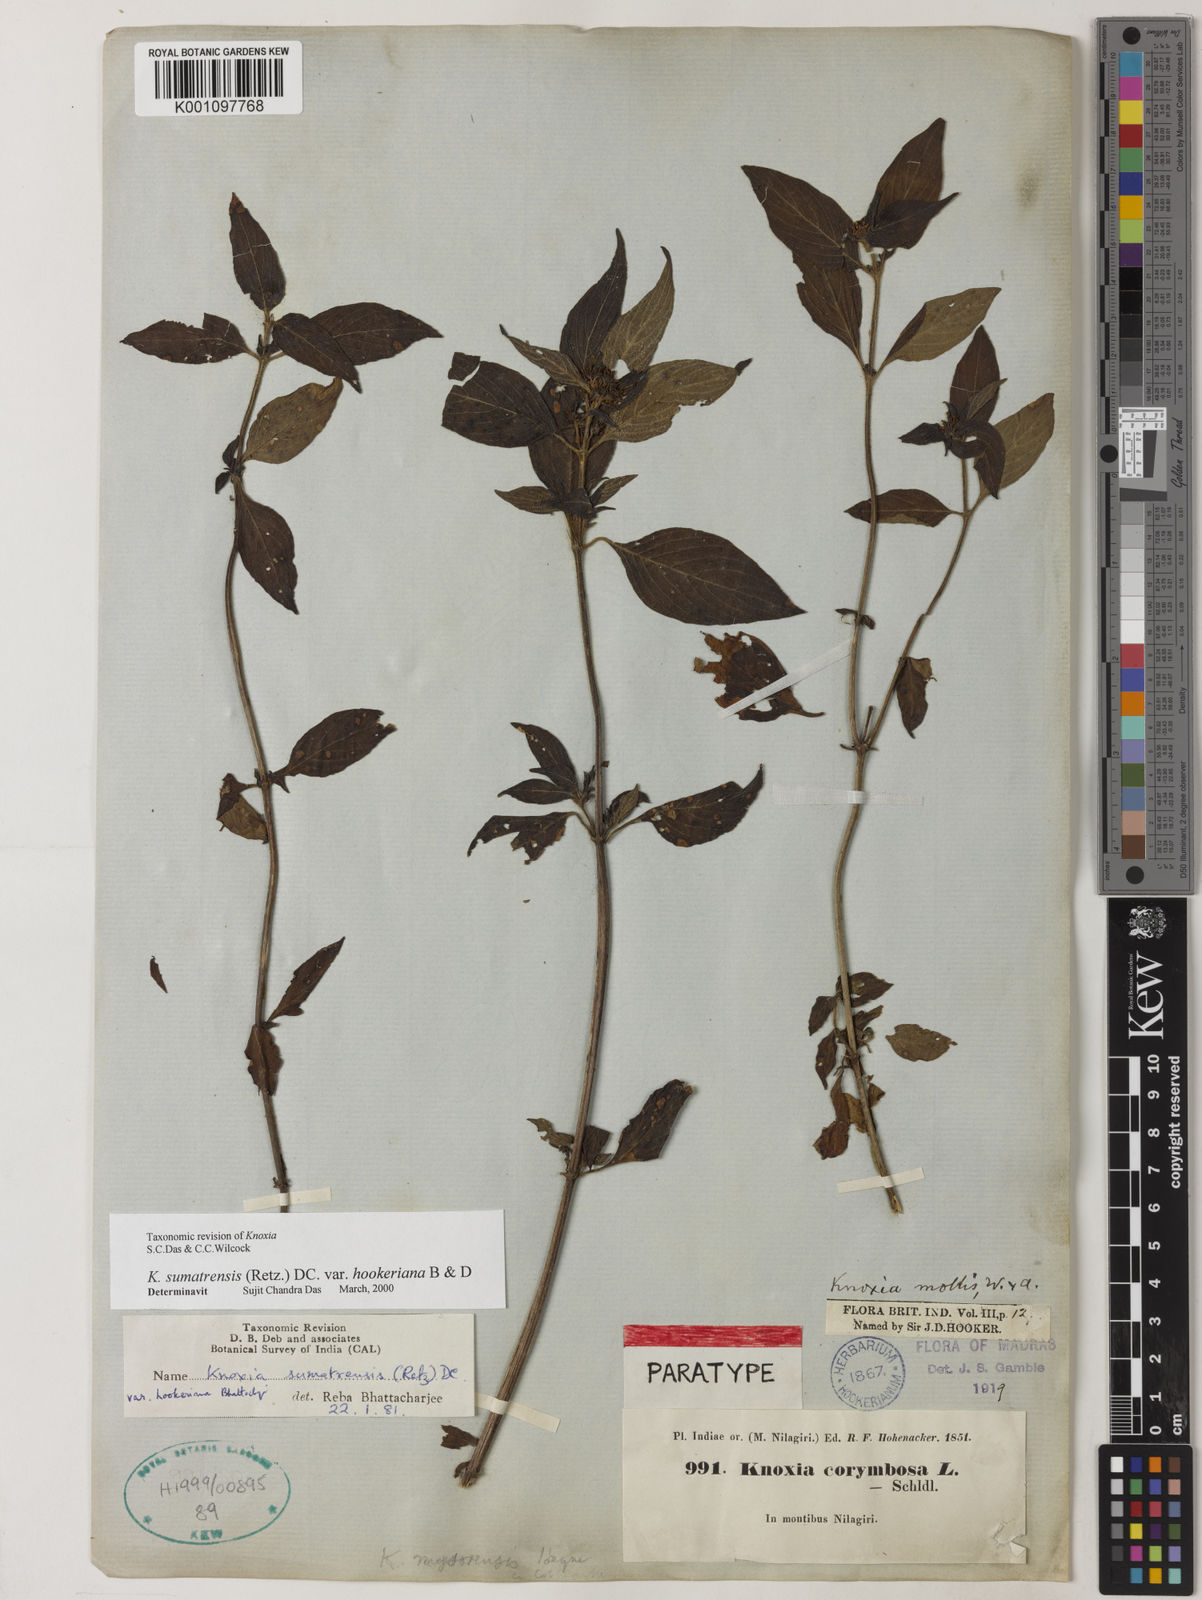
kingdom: Plantae
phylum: Tracheophyta
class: Magnoliopsida
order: Gentianales
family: Rubiaceae
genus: Knoxia
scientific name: Knoxia sumatrensis
